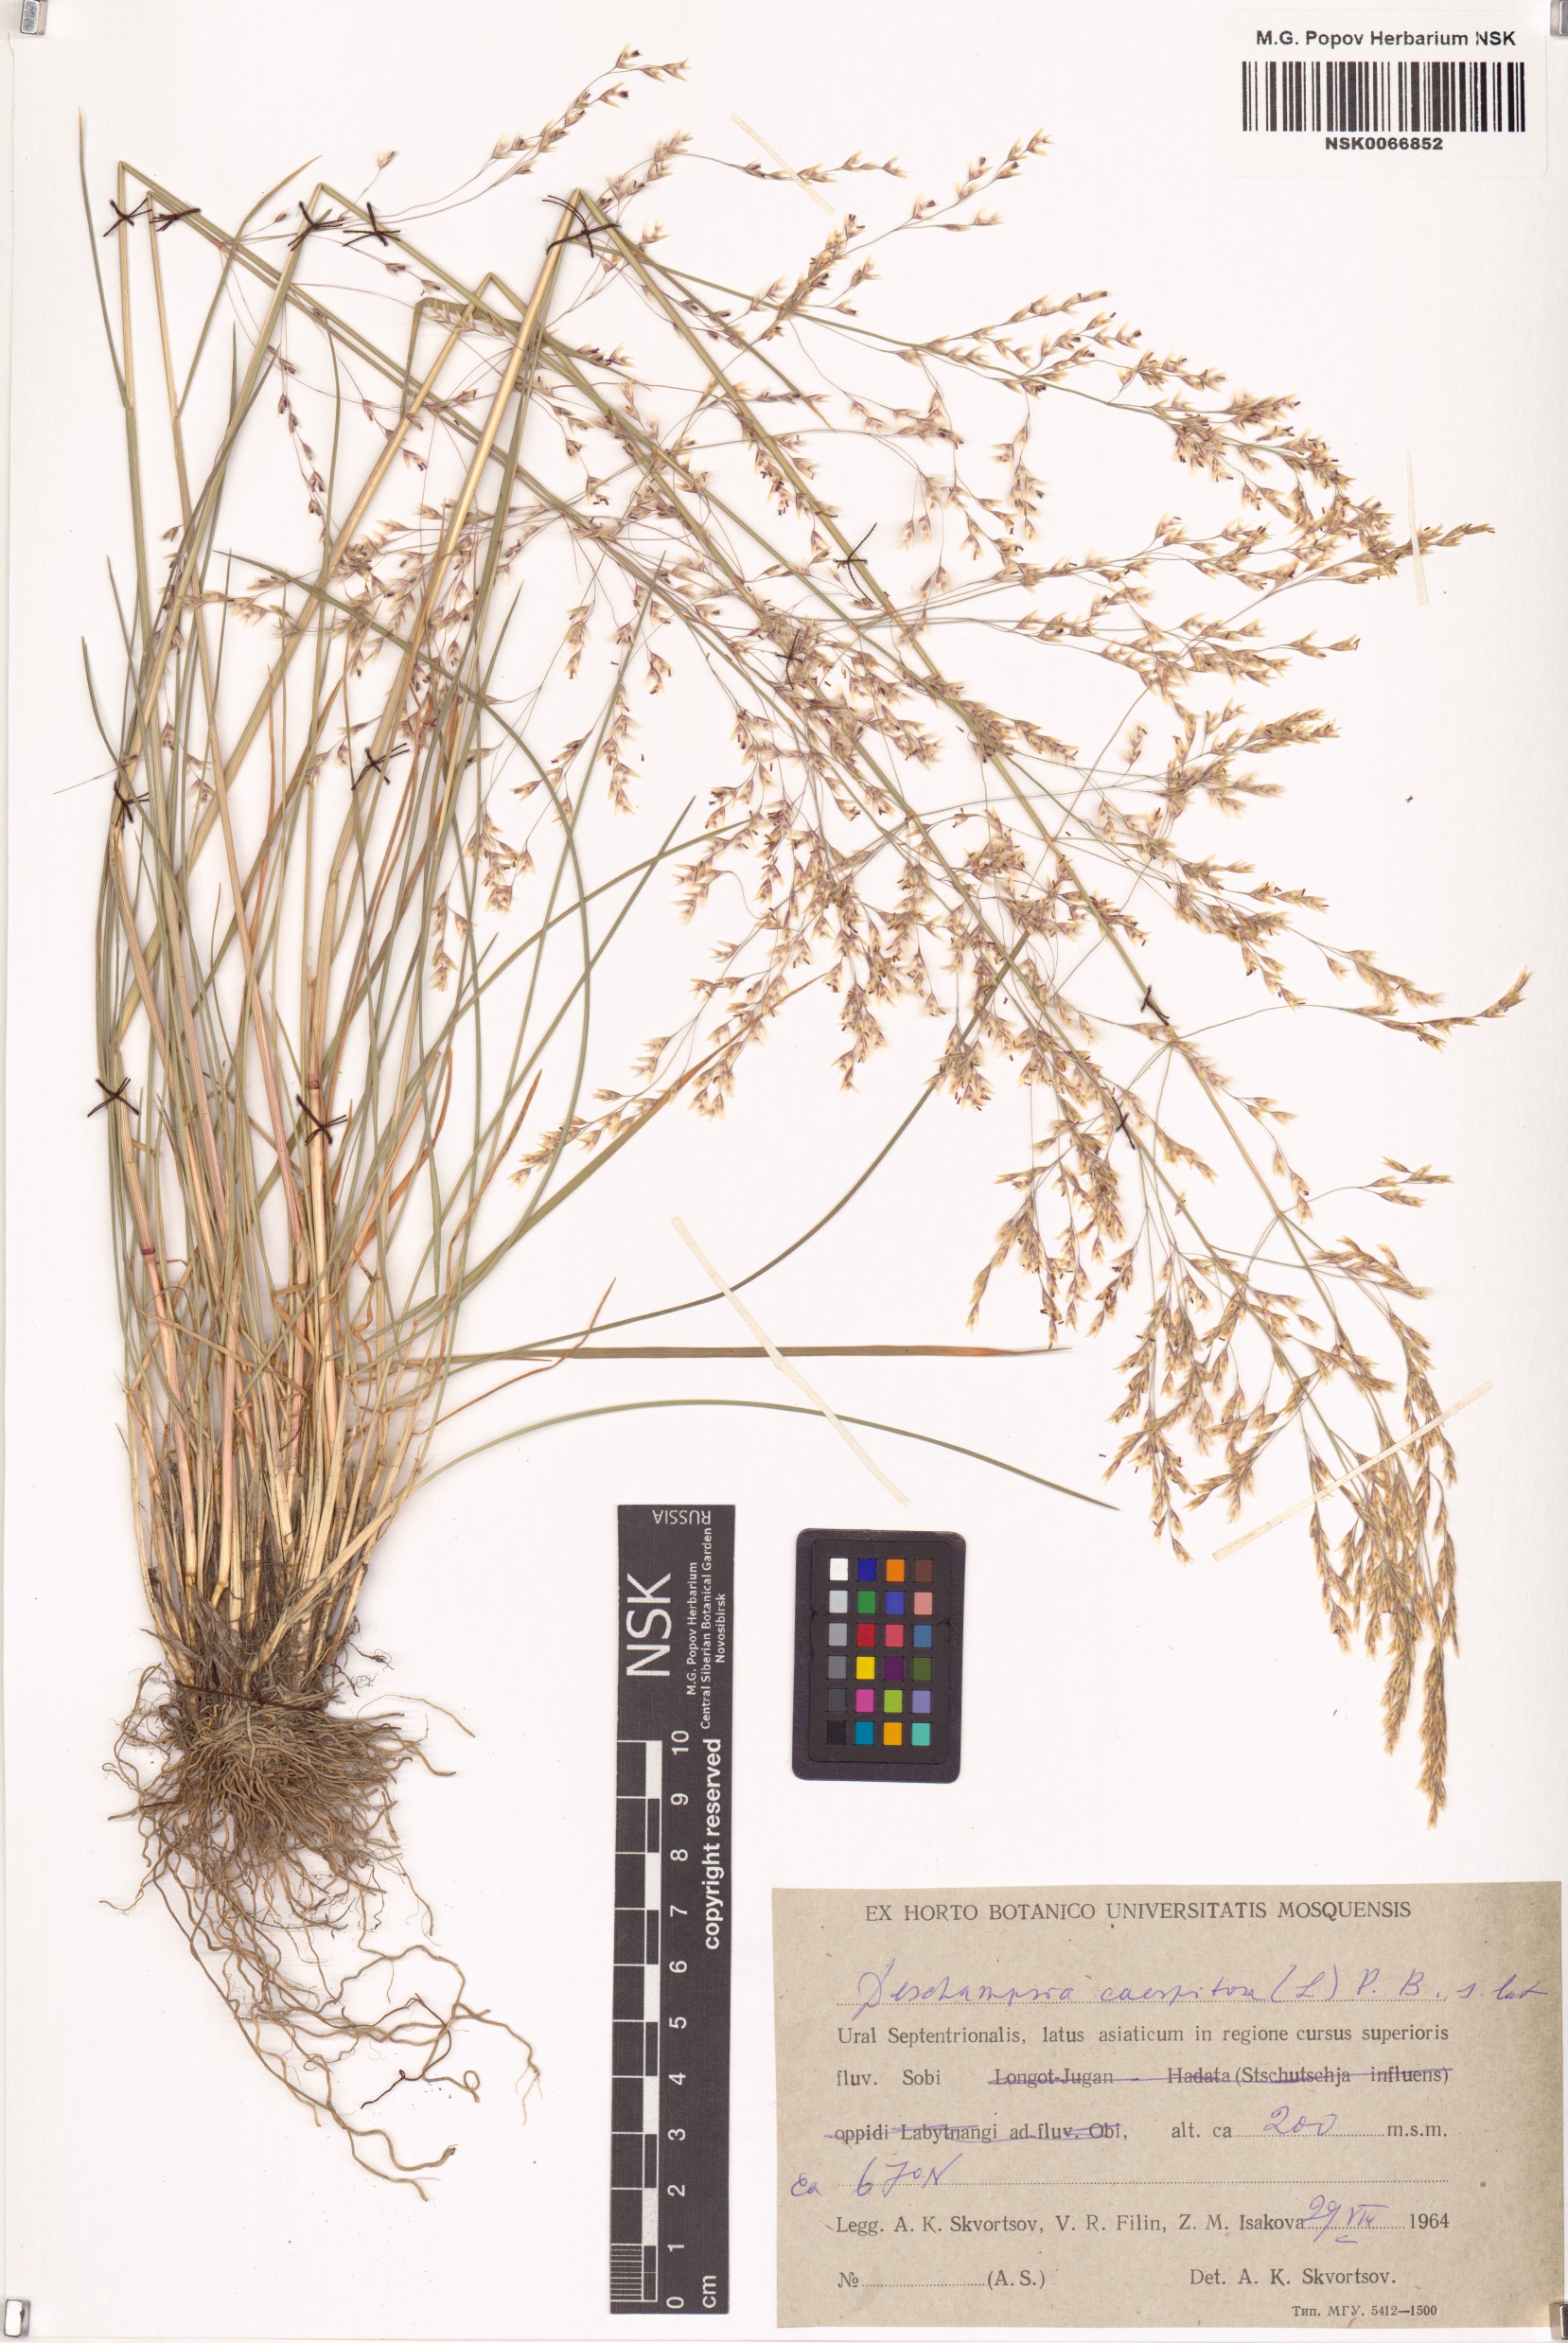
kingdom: Plantae
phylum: Tracheophyta
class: Liliopsida
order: Poales
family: Poaceae
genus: Deschampsia
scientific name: Deschampsia cespitosa
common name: Tufted hair-grass
